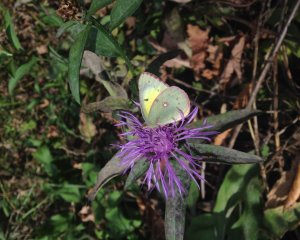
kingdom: Animalia
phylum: Arthropoda
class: Insecta
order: Lepidoptera
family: Pieridae
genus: Colias
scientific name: Colias philodice
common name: Clouded Sulphur
